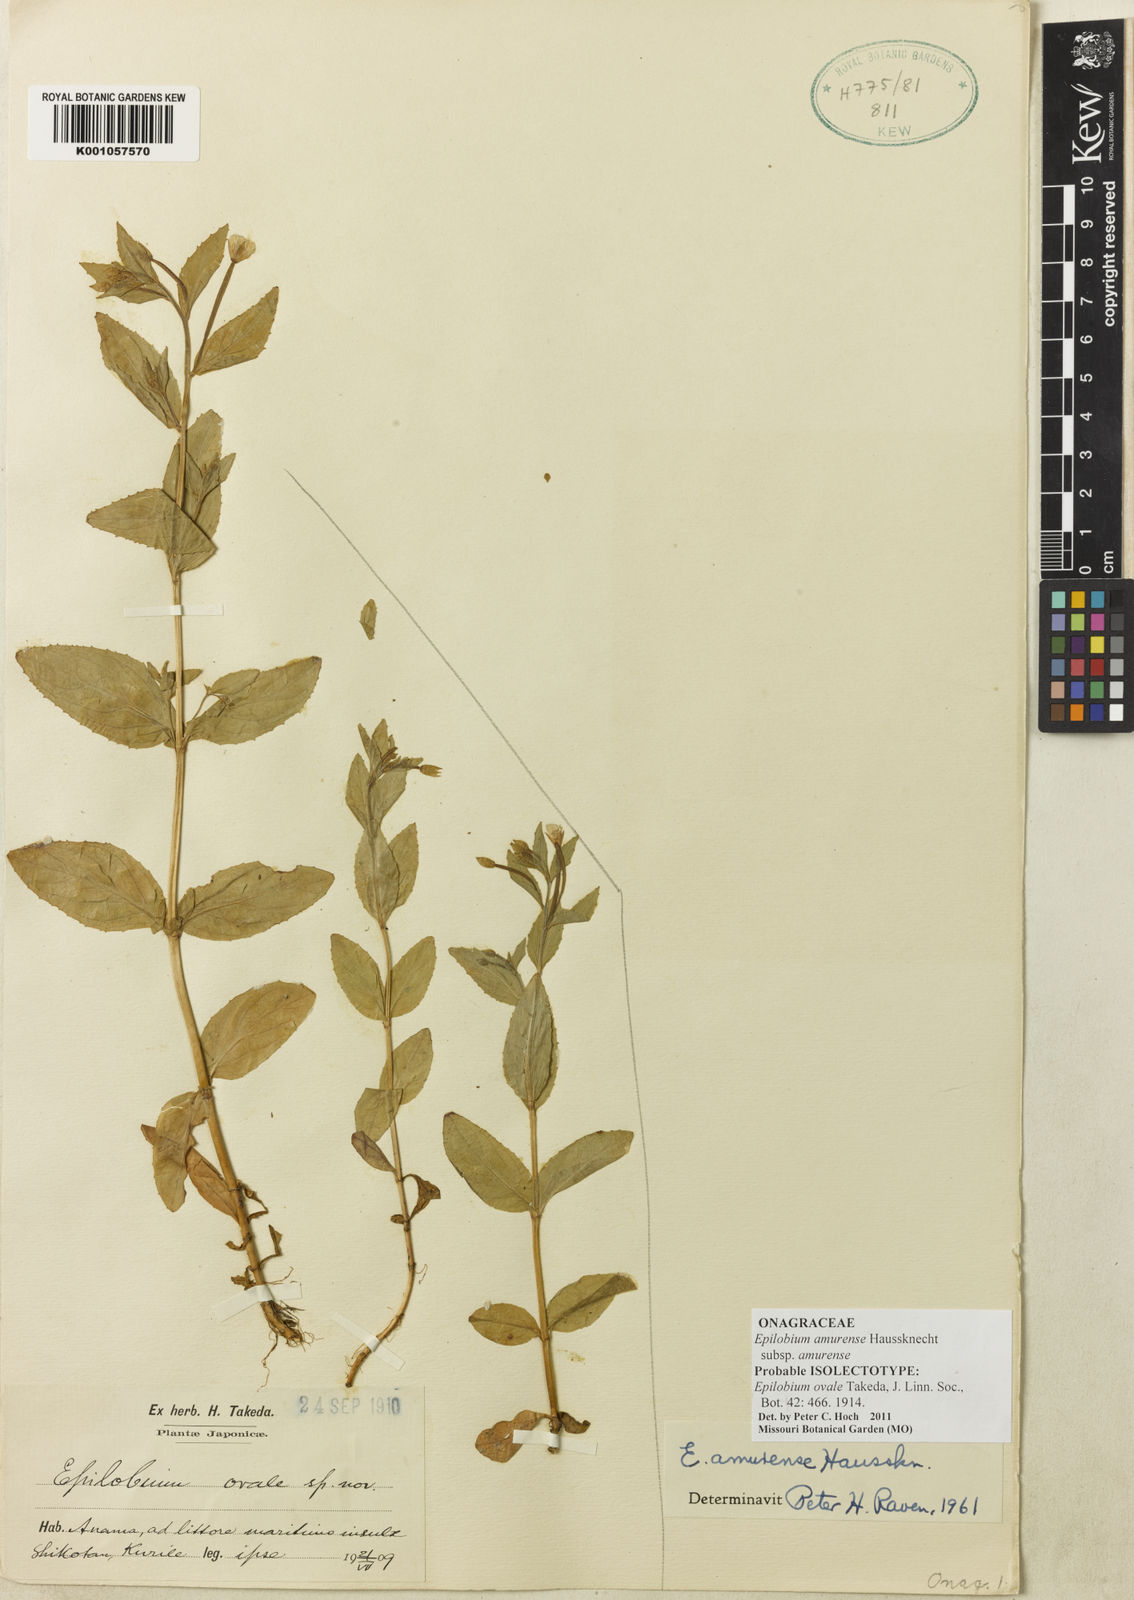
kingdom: Plantae
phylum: Tracheophyta
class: Magnoliopsida
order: Myrtales
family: Onagraceae
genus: Epilobium
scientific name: Epilobium amurense
